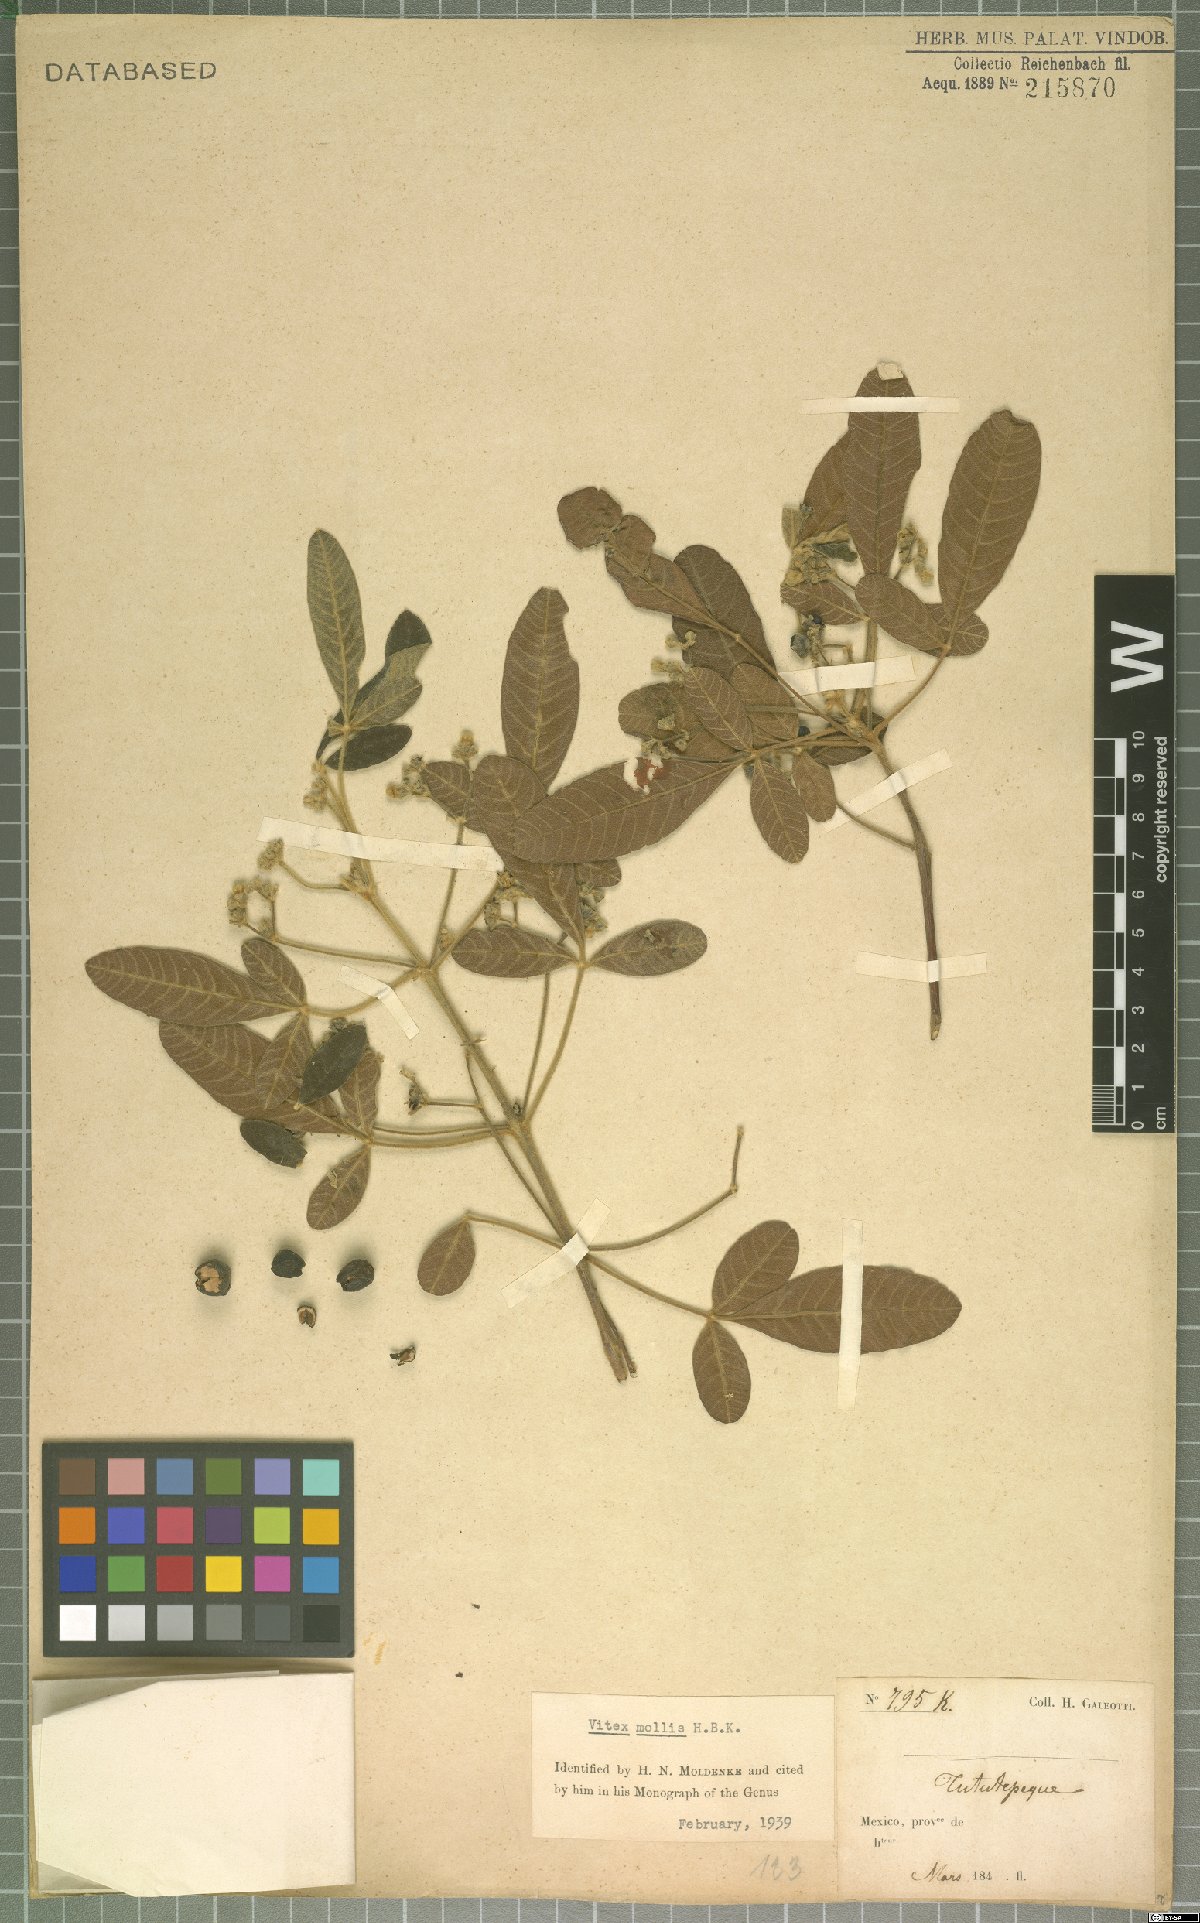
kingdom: Plantae
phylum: Tracheophyta
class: Magnoliopsida
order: Lamiales
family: Lamiaceae
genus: Vitex
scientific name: Vitex mollis
